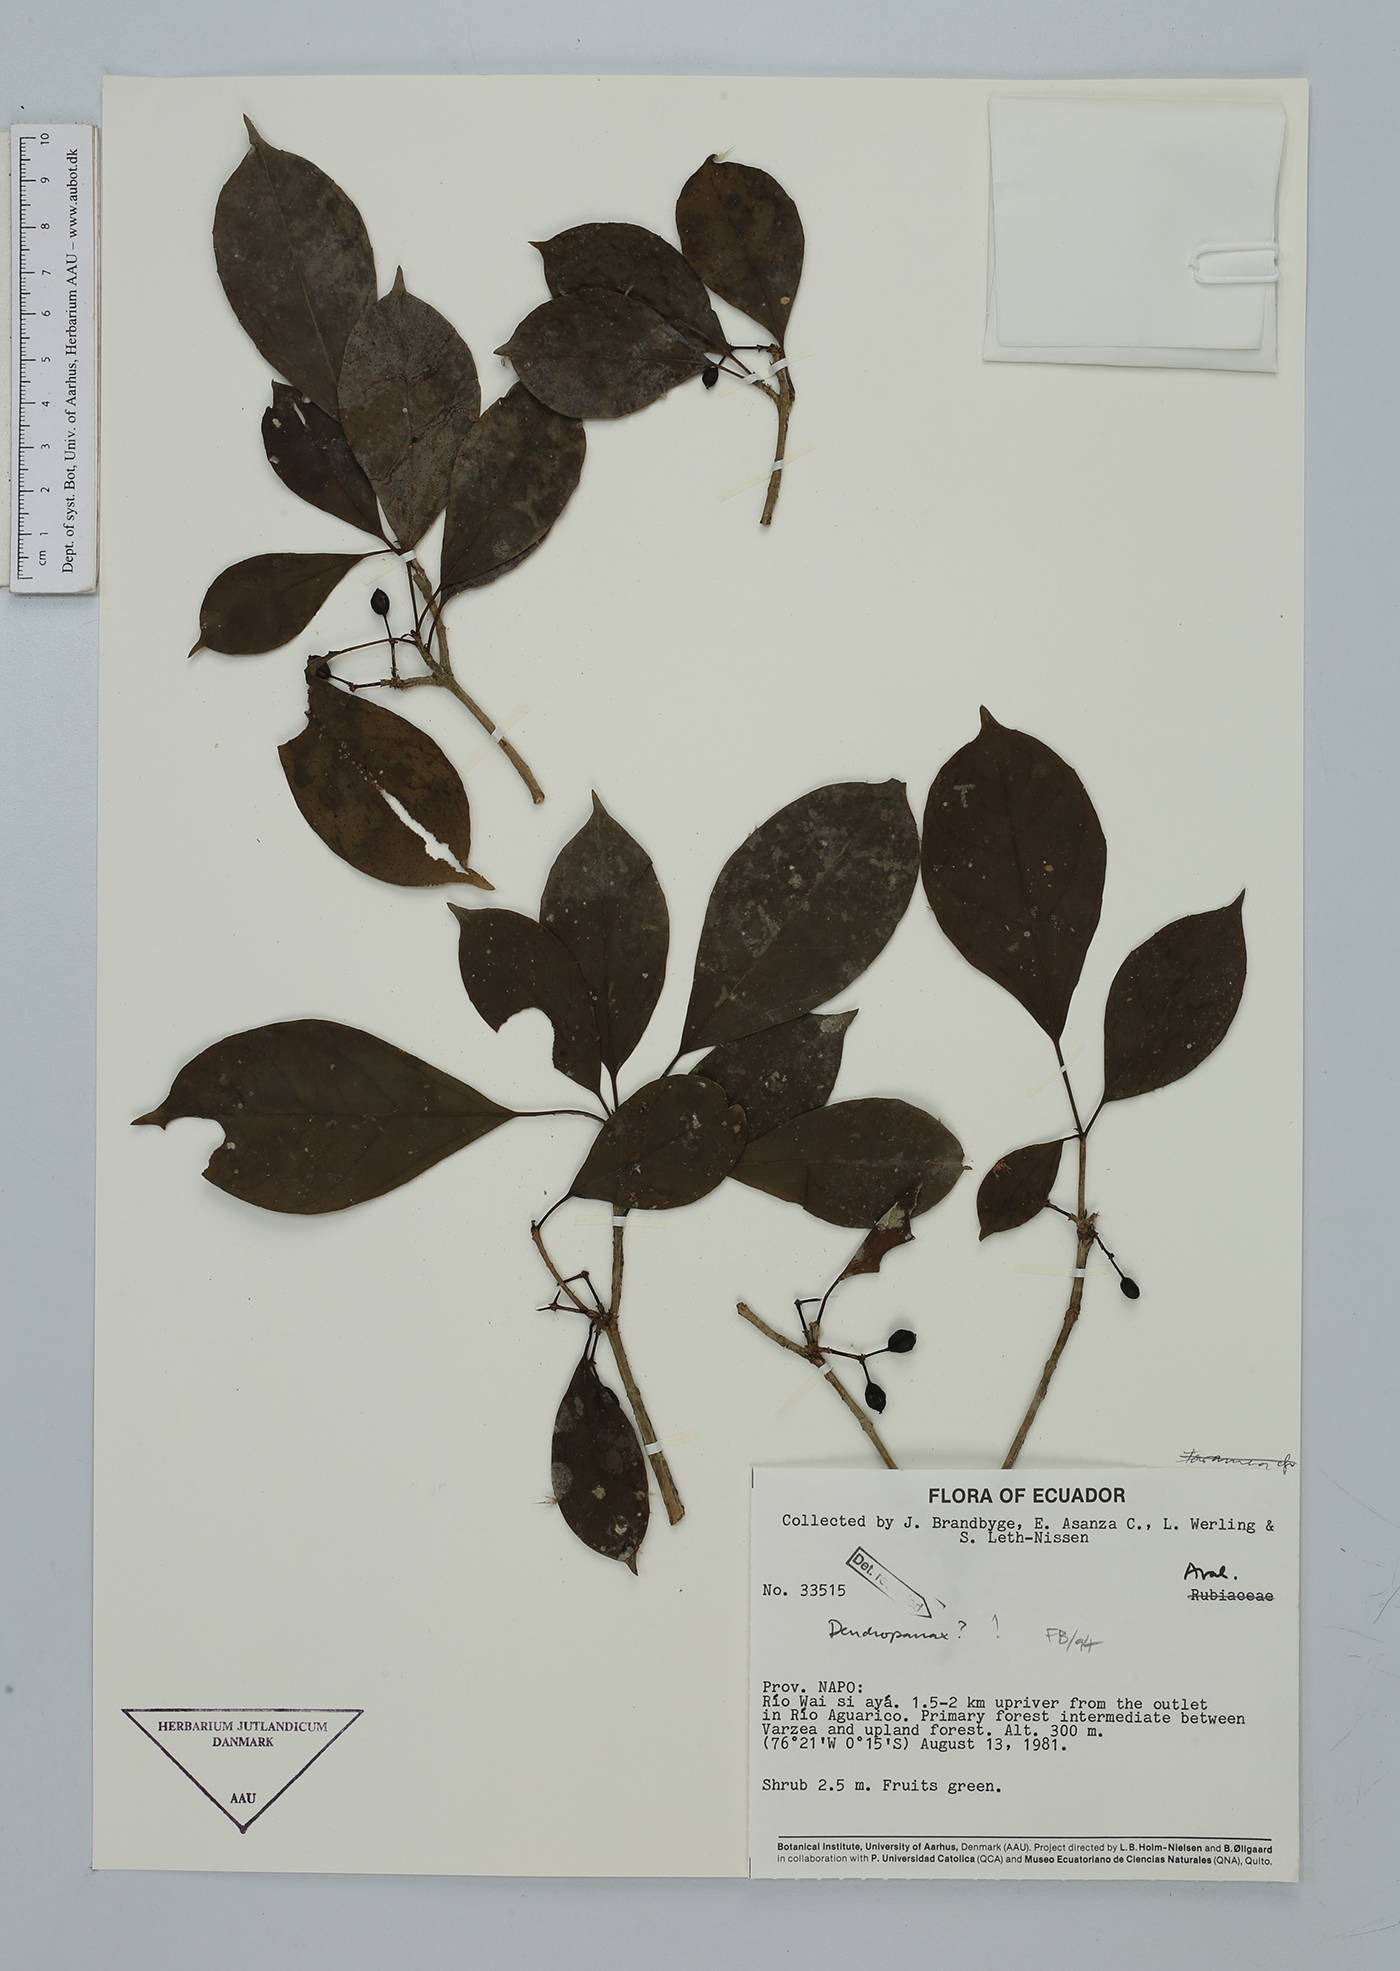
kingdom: Plantae
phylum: Tracheophyta
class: Magnoliopsida
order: Apiales
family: Araliaceae
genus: Dendropanax
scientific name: Dendropanax
